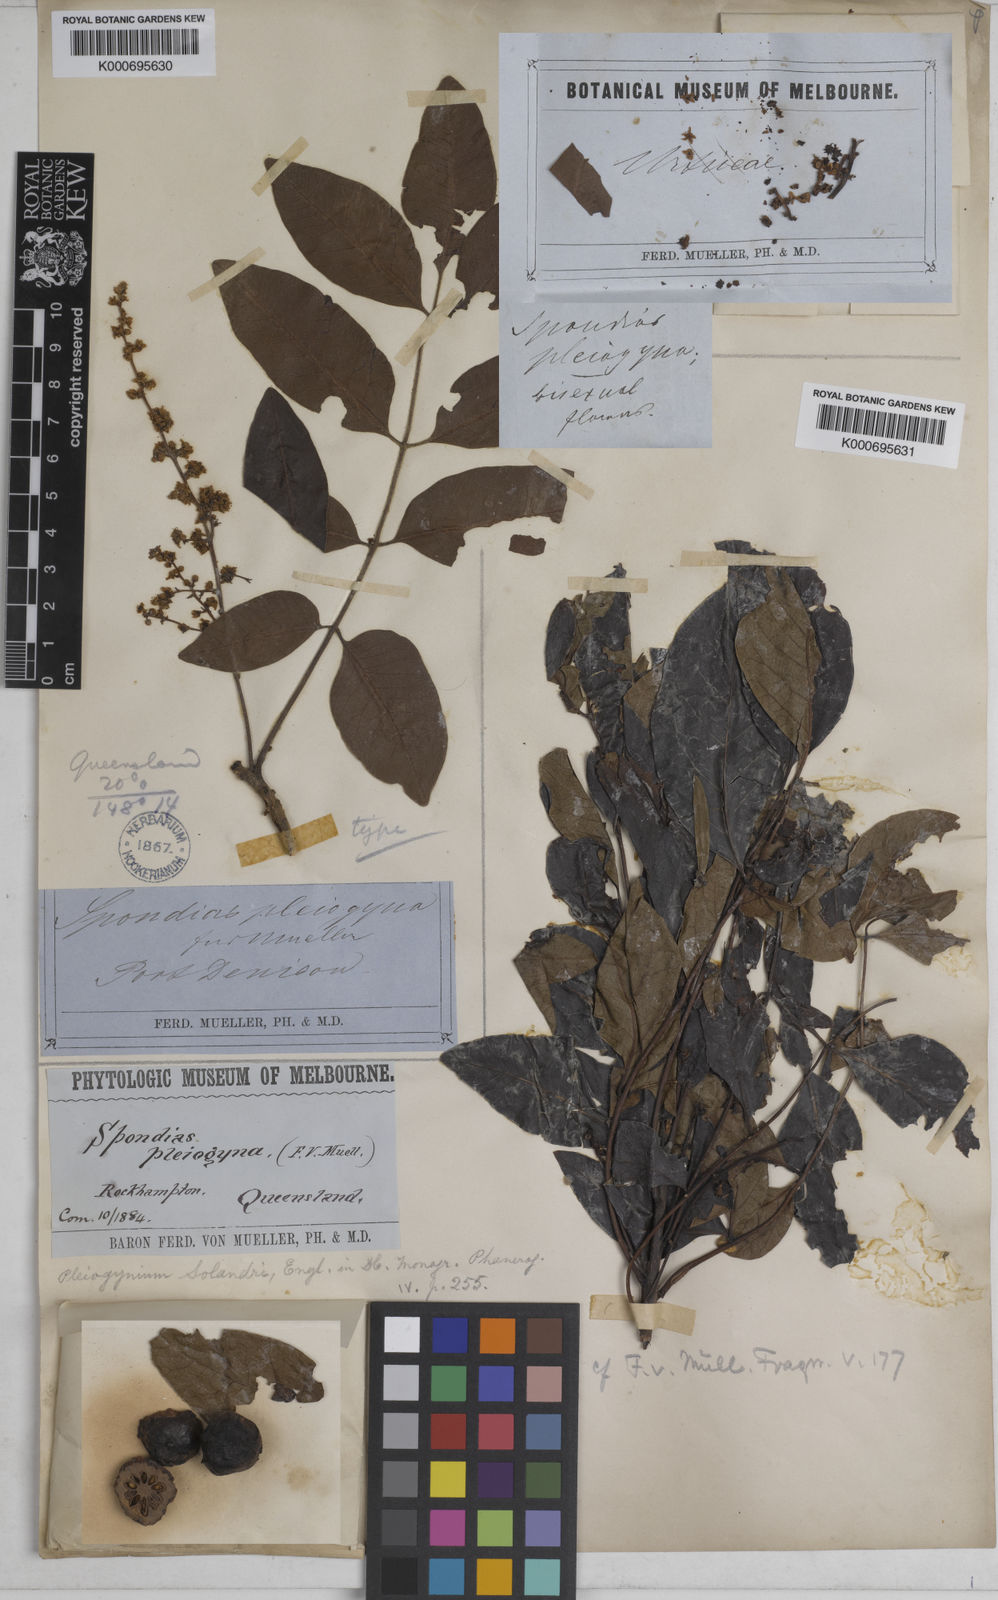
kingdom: Plantae
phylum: Tracheophyta
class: Magnoliopsida
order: Sapindales
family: Anacardiaceae
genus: Pleiogynium
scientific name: Pleiogynium timoriense
